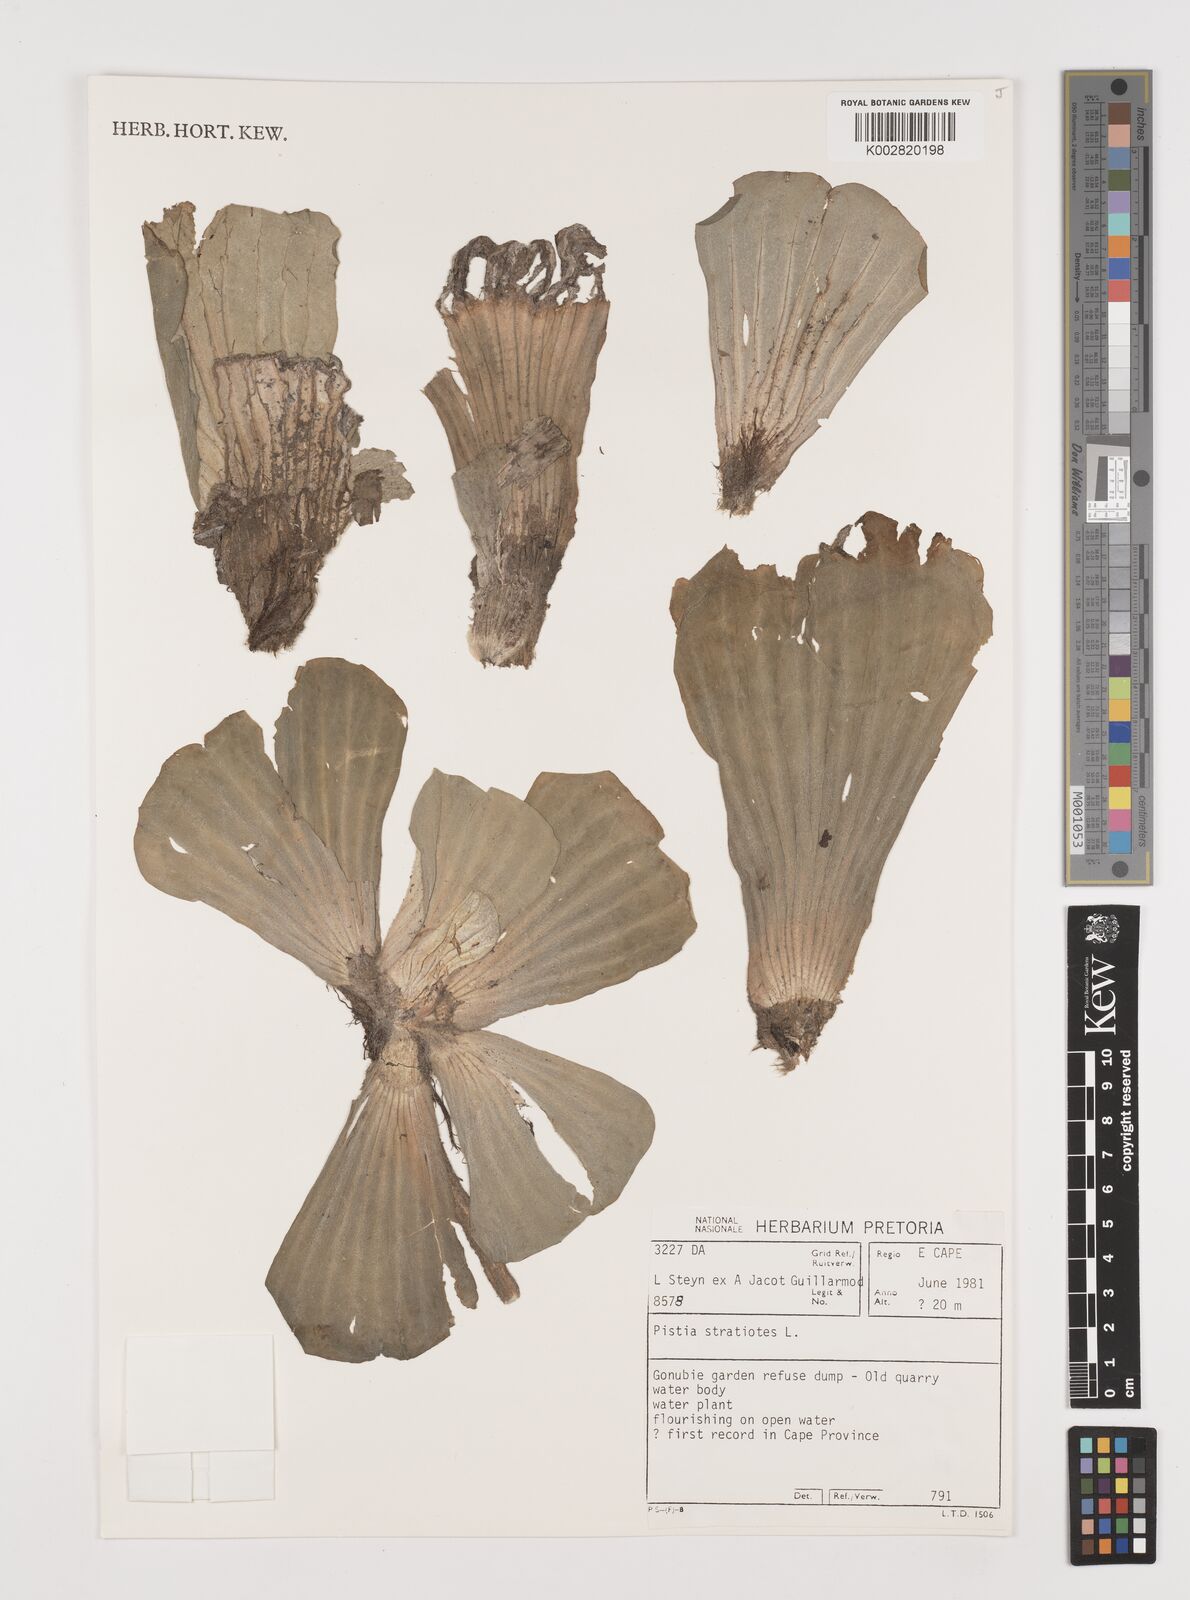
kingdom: Plantae
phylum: Tracheophyta
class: Liliopsida
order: Alismatales
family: Araceae
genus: Pistia
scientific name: Pistia stratiotes
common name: Water lettuce
